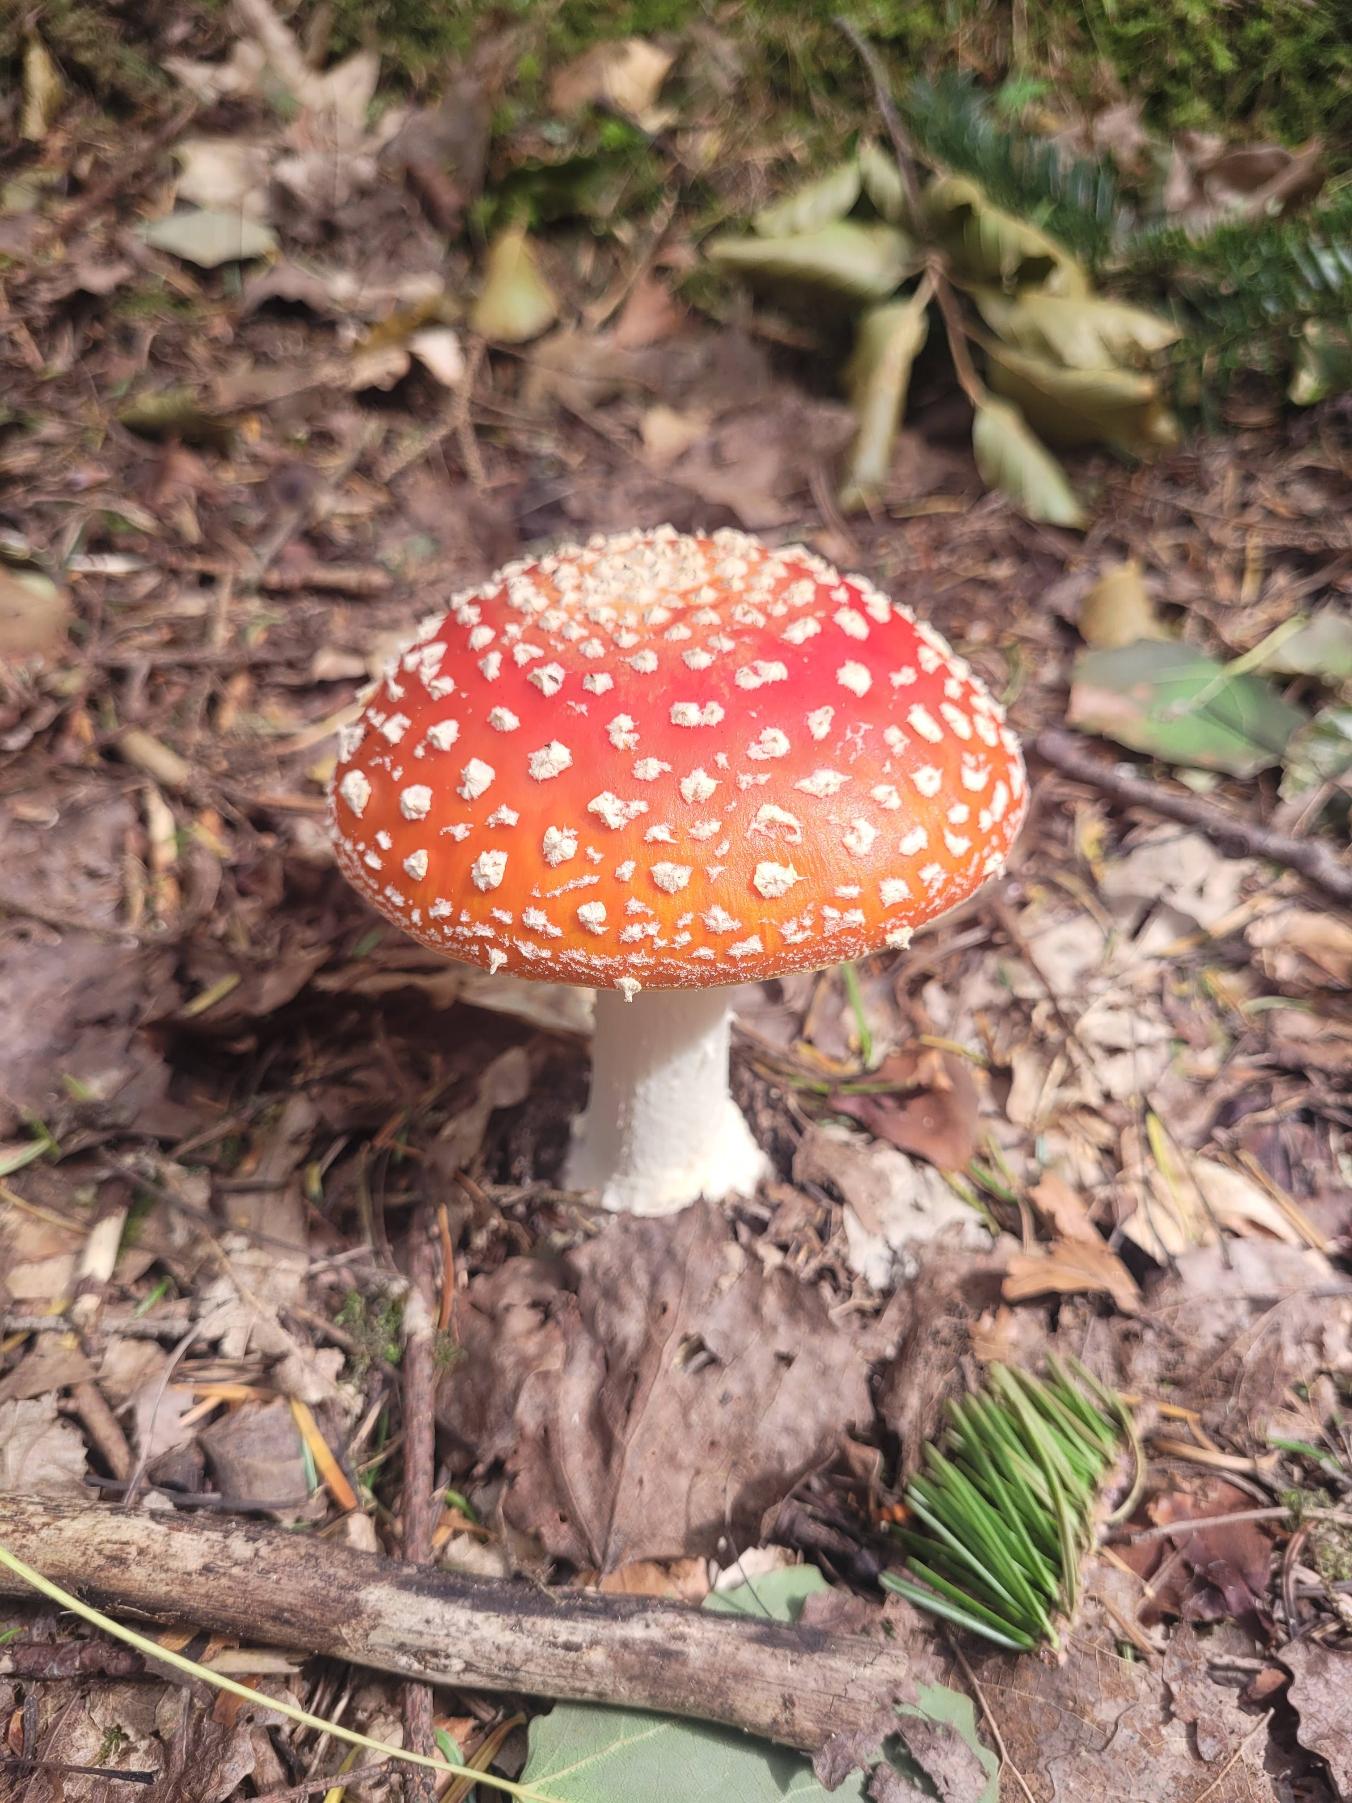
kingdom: Fungi
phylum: Basidiomycota
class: Agaricomycetes
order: Agaricales
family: Amanitaceae
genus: Amanita
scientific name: Amanita muscaria
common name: Rød fluesvamp
